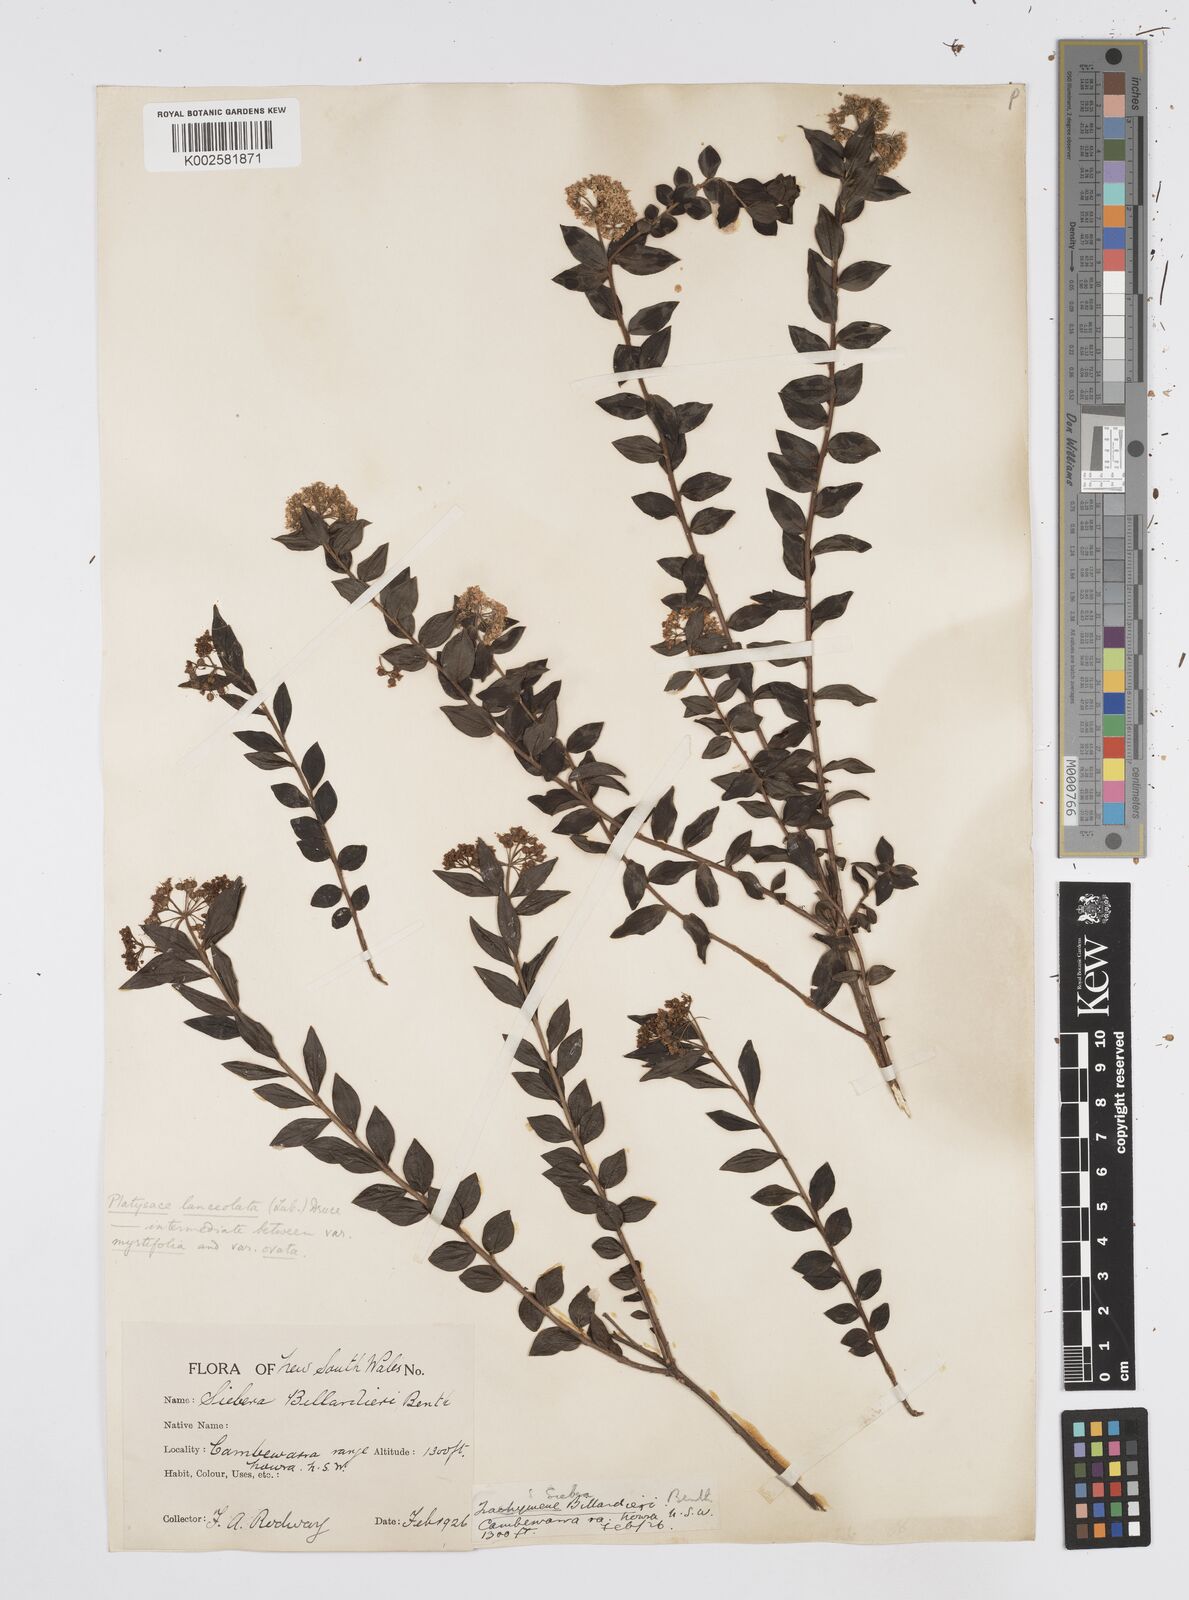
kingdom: Plantae
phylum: Tracheophyta
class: Magnoliopsida
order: Apiales
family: Apiaceae
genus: Platysace
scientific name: Platysace lanceolata
